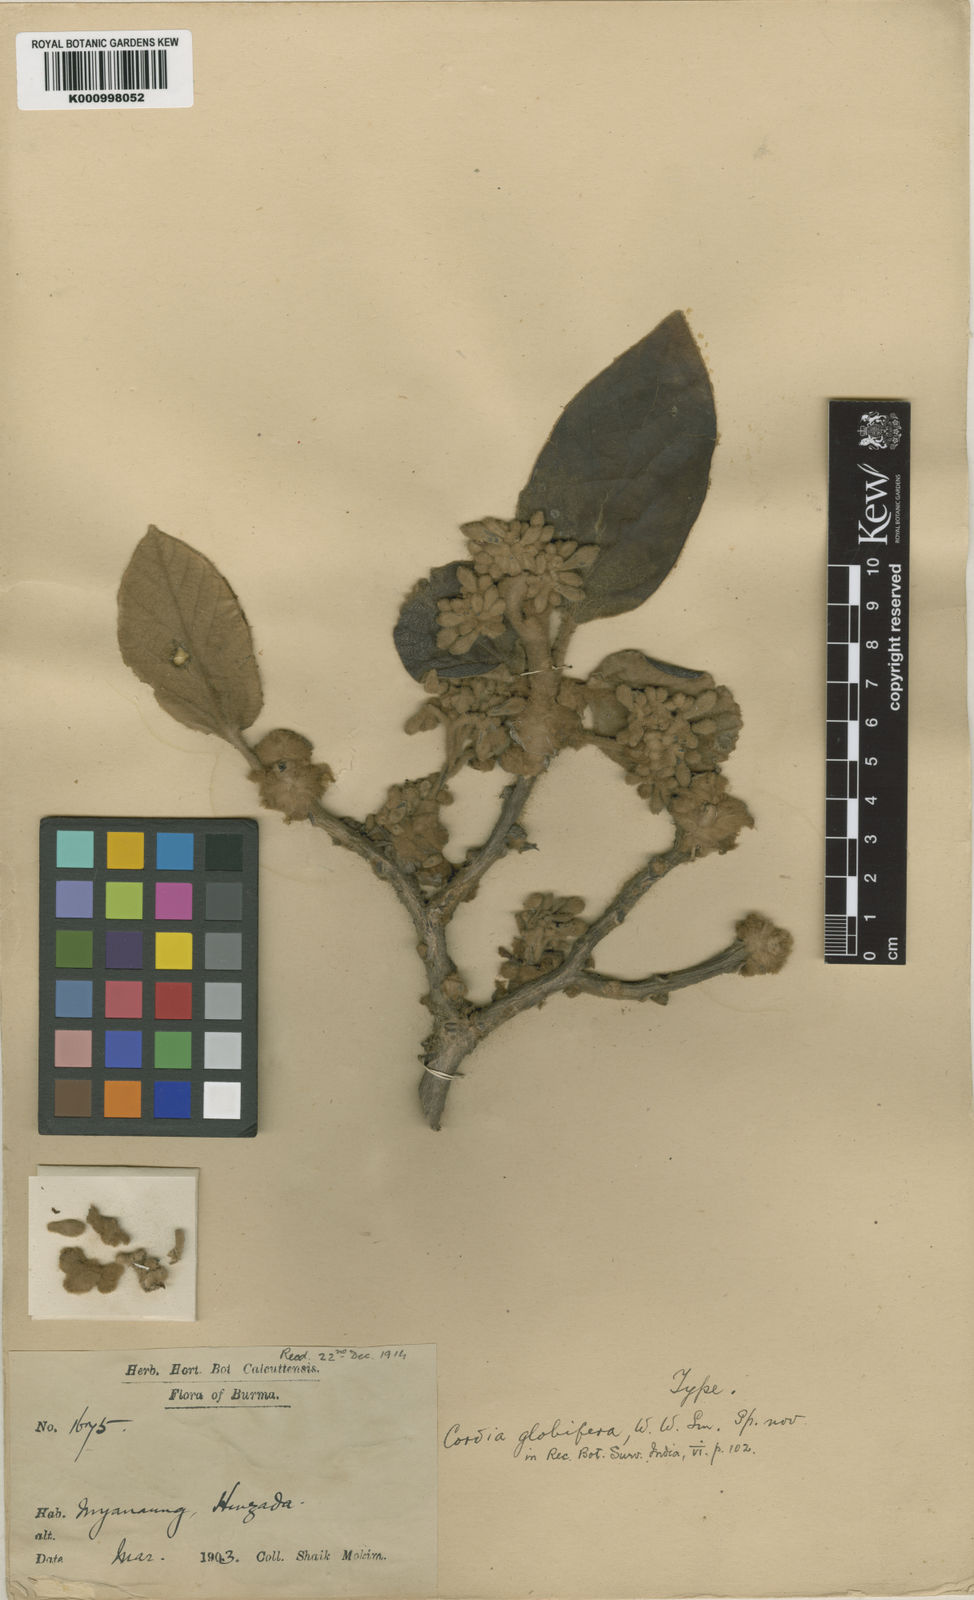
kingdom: Plantae
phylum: Tracheophyta
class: Magnoliopsida
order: Boraginales
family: Cordiaceae
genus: Cordia
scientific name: Cordia globifera
